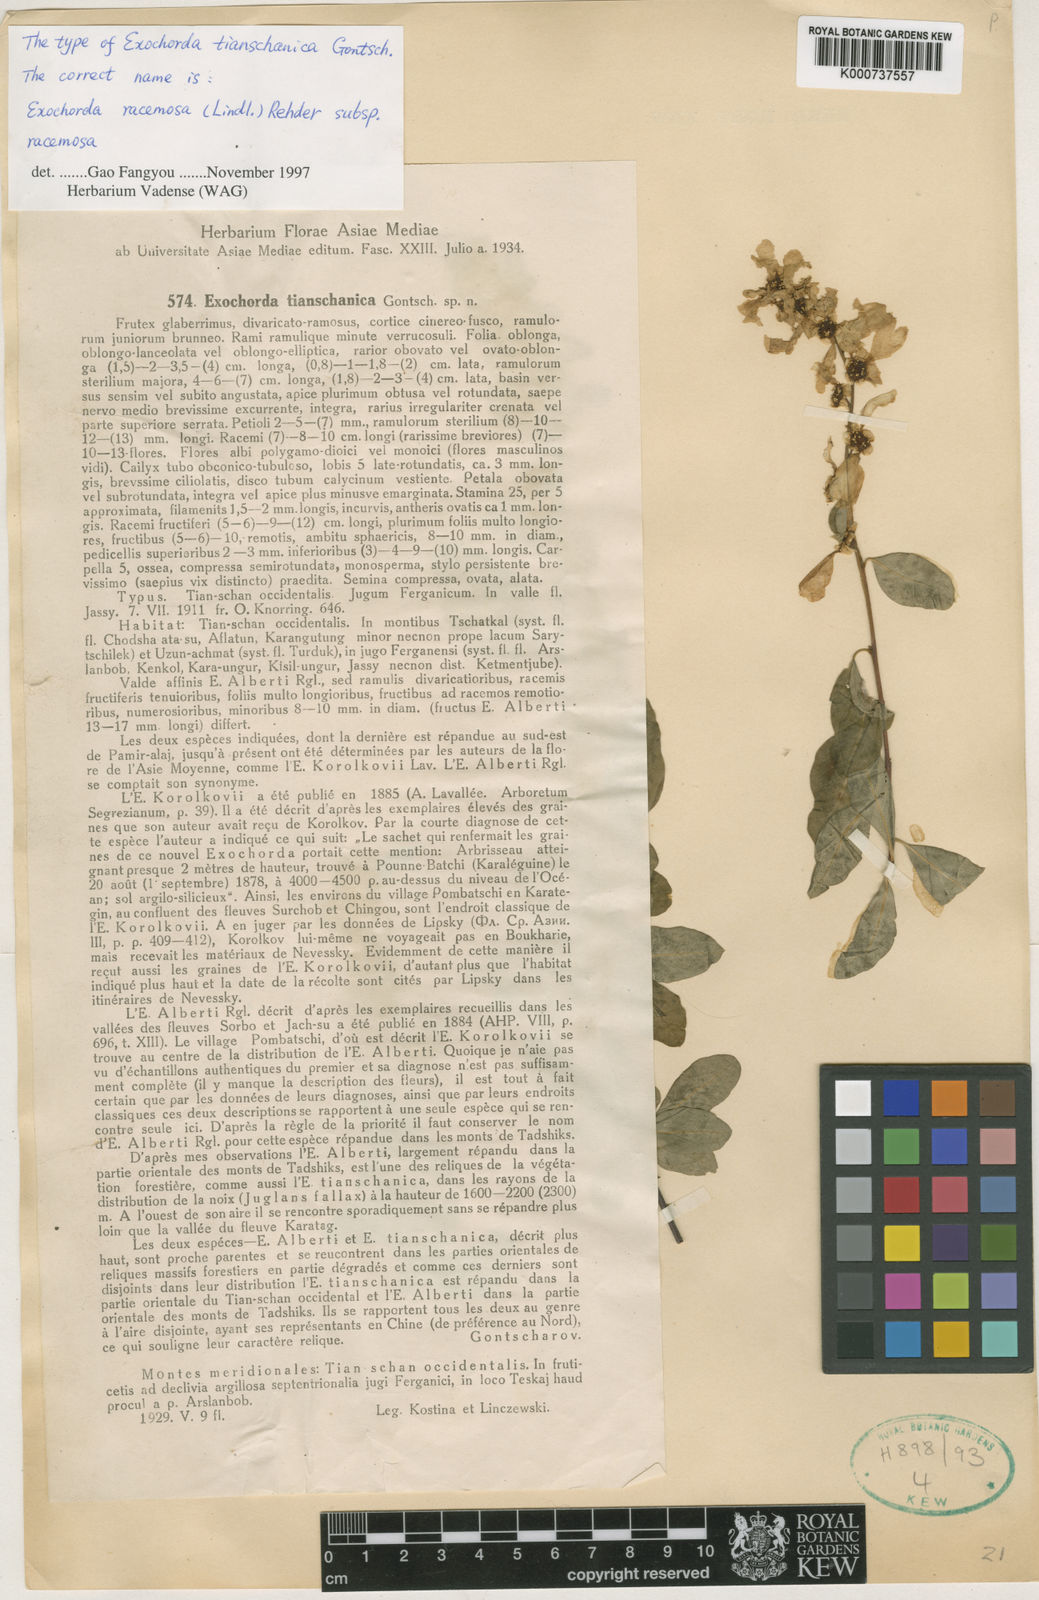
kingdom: Plantae
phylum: Tracheophyta
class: Magnoliopsida
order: Rosales
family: Rosaceae
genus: Exochorda
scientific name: Exochorda racemosa
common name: Common pearlbrush
